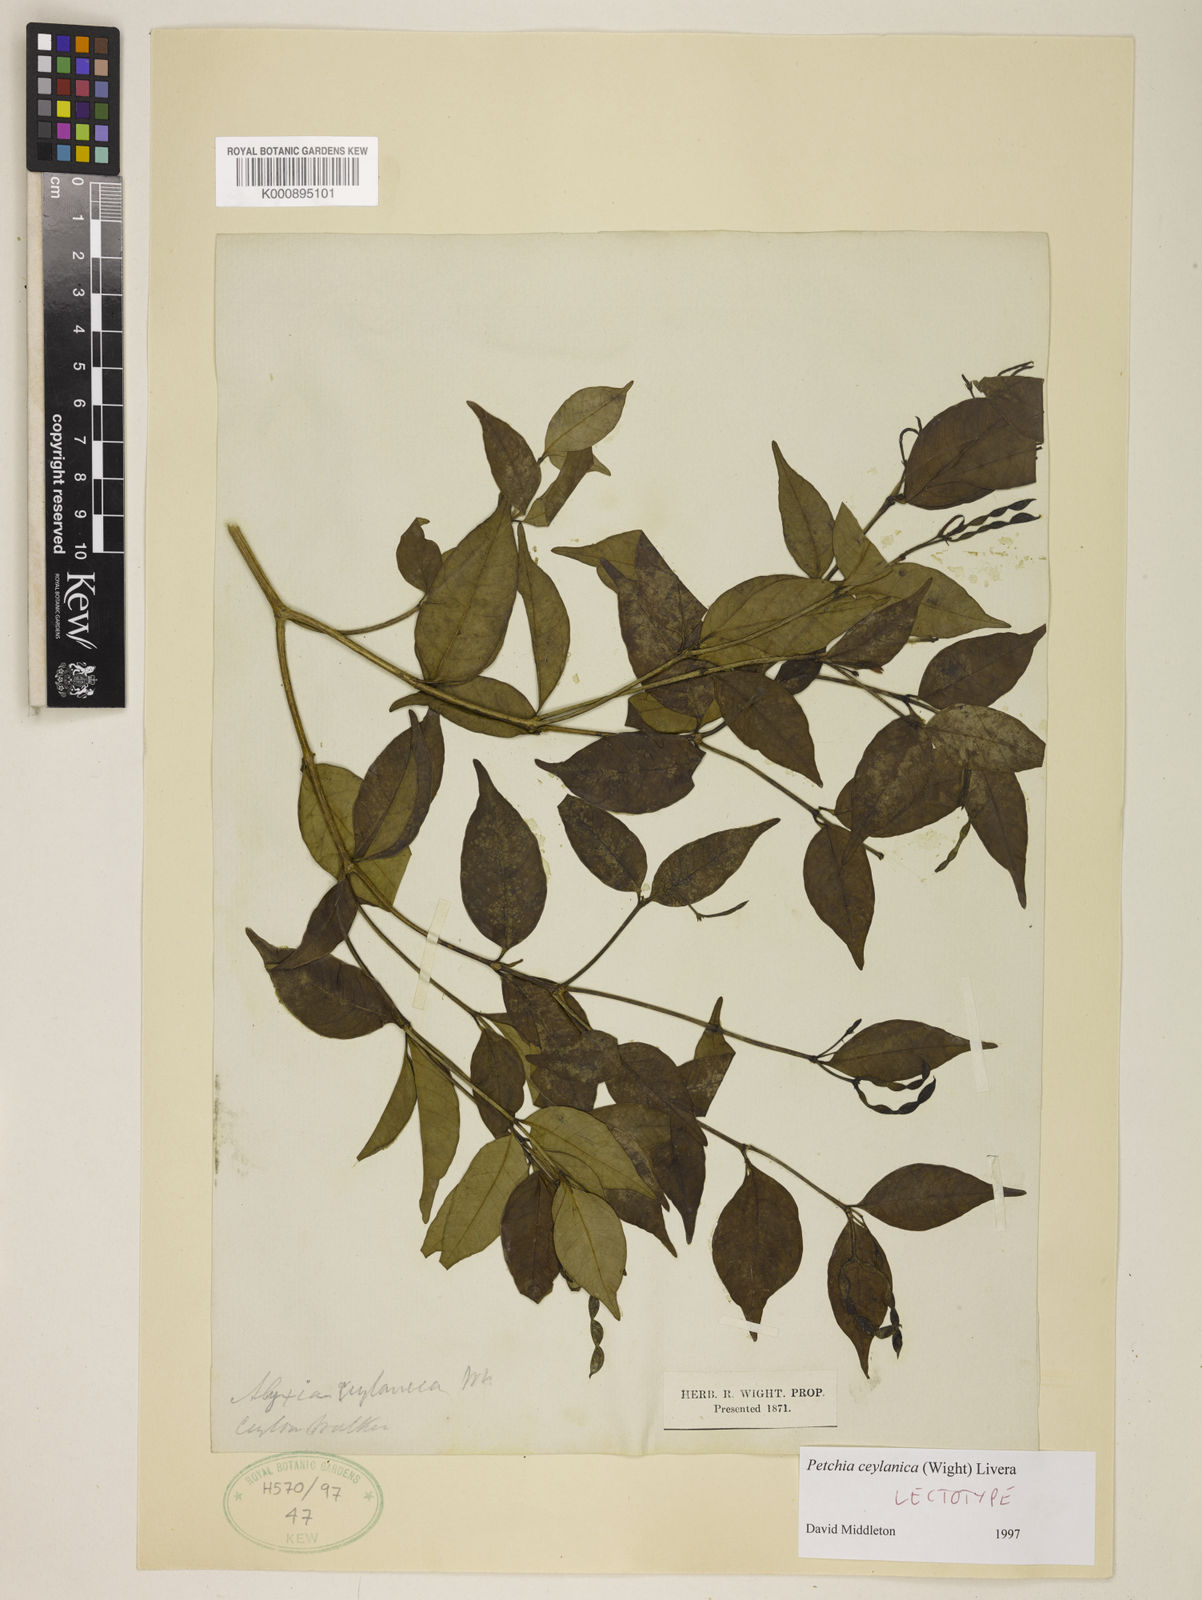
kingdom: Plantae
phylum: Tracheophyta
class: Magnoliopsida
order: Gentianales
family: Apocynaceae
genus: Petchia
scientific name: Petchia ceylanica
